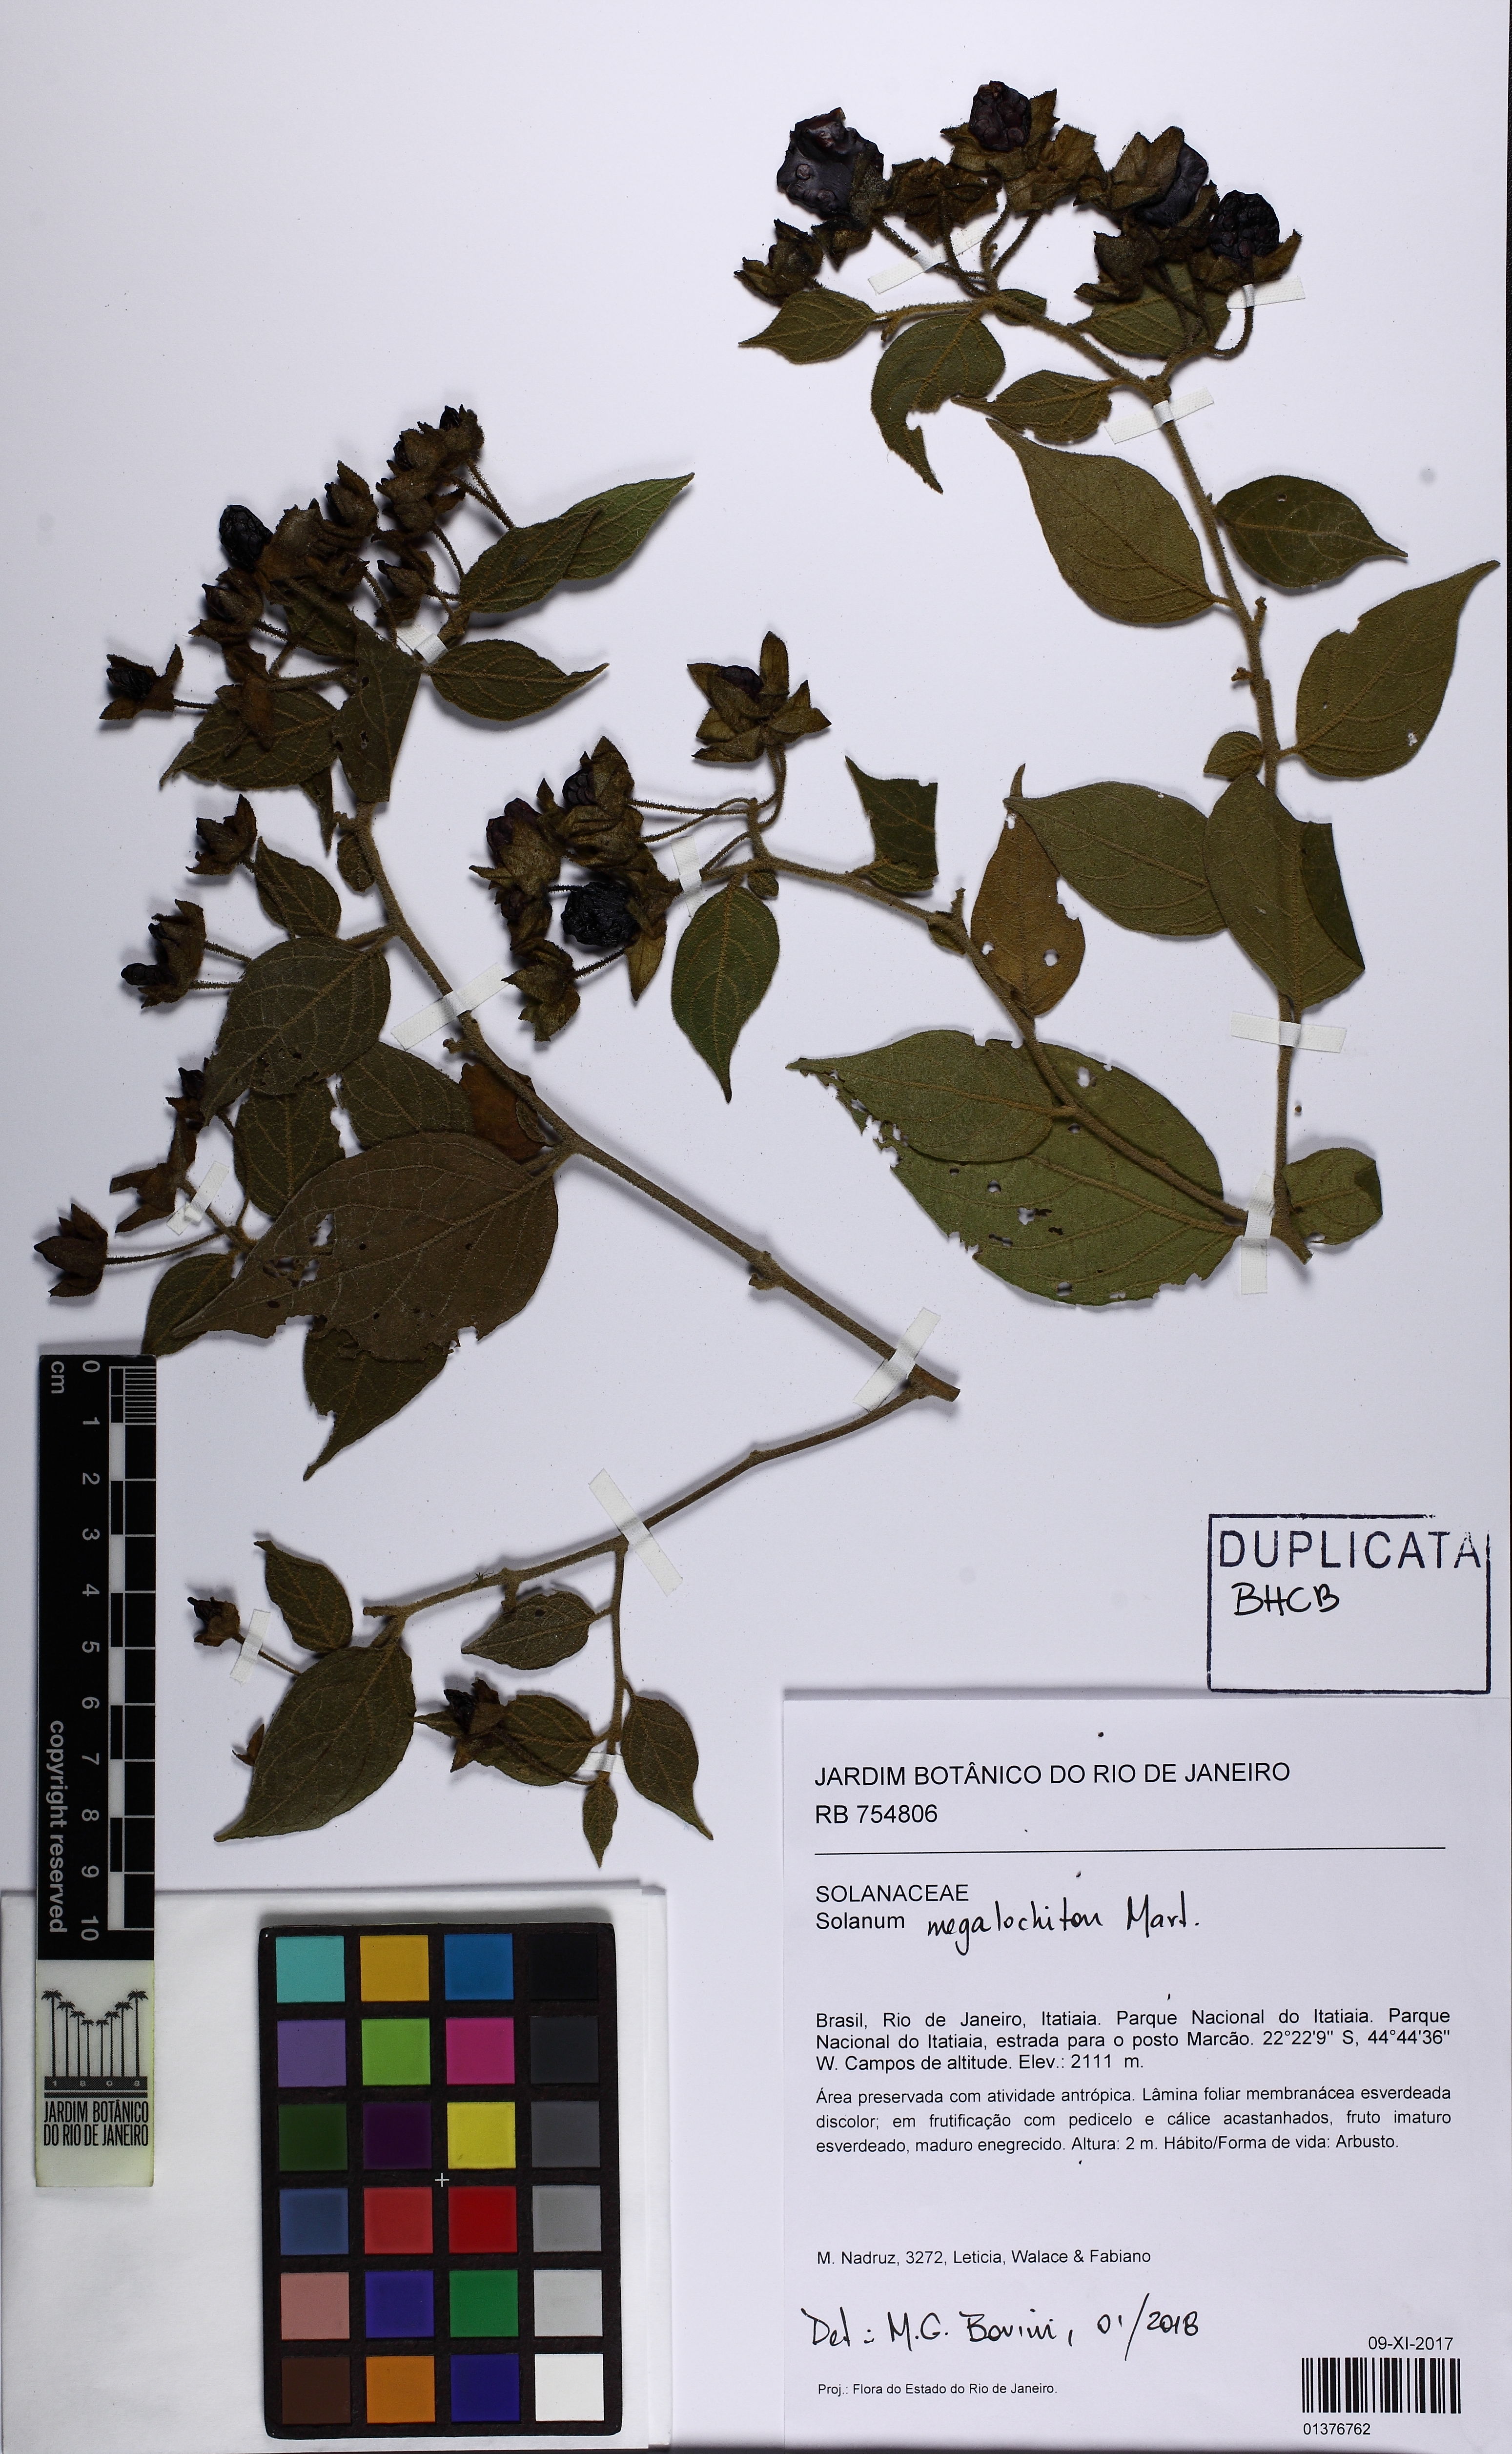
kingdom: Plantae
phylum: Tracheophyta
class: Magnoliopsida
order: Solanales
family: Solanaceae
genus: Solanum
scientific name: Solanum megalochiton
